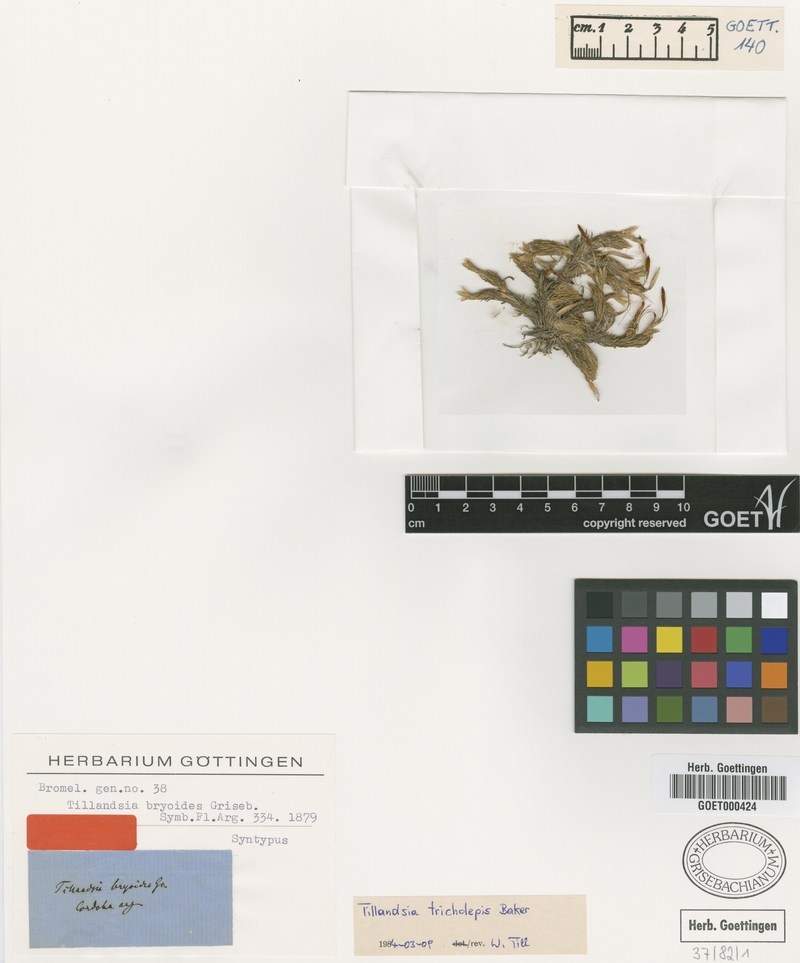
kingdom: Plantae
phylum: Tracheophyta
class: Liliopsida
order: Poales
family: Bromeliaceae
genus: Tillandsia
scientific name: Tillandsia bryoides
